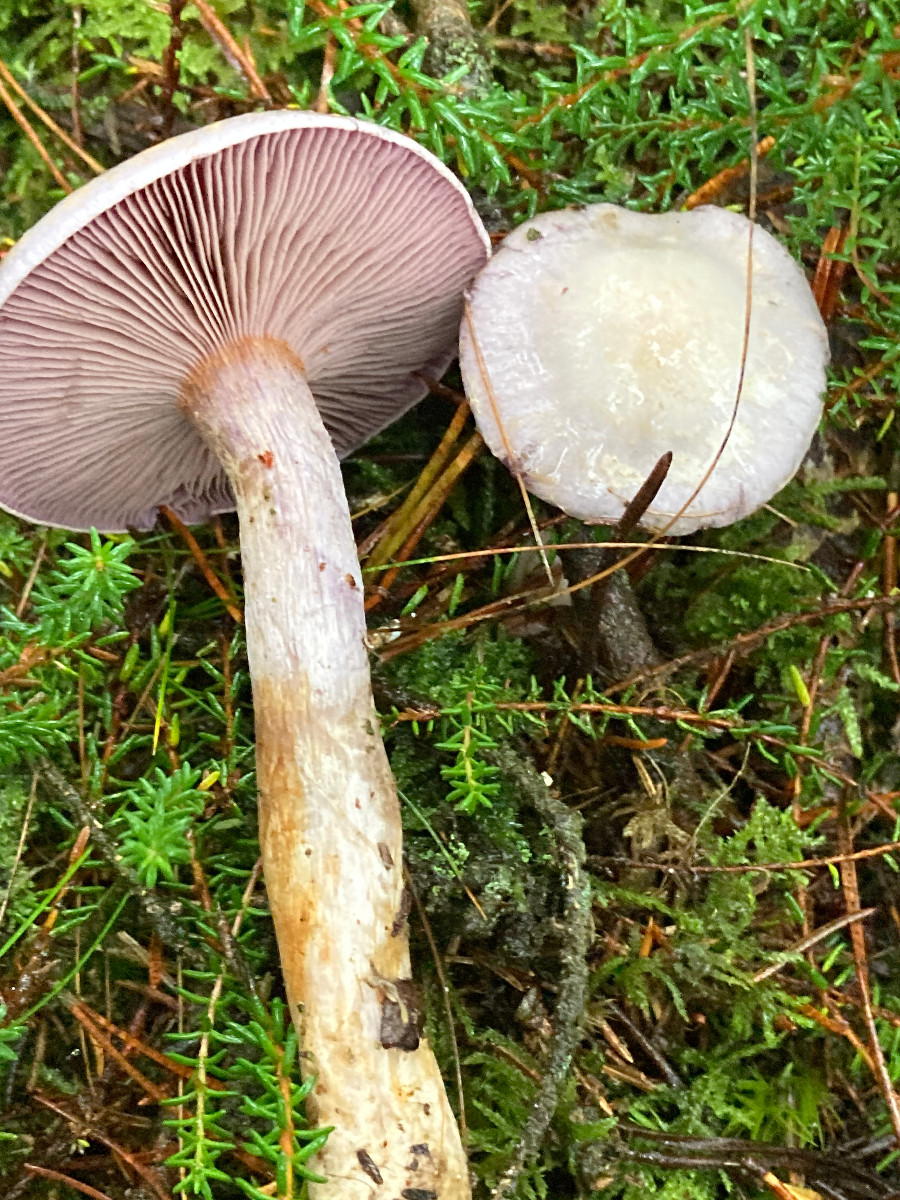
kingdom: Fungi
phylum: Basidiomycota
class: Agaricomycetes
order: Agaricales
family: Cortinariaceae
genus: Cortinarius
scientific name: Cortinarius camphoratus
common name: stinkende slørhat
